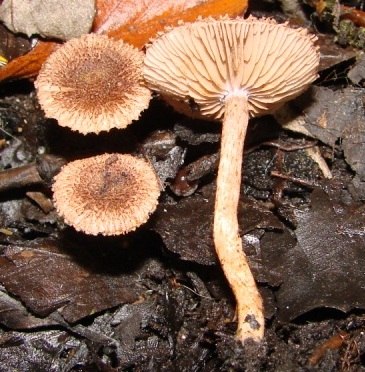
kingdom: Fungi
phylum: Basidiomycota
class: Agaricomycetes
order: Agaricales
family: Inocybaceae
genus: Inocybe
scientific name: Inocybe squarrosa
